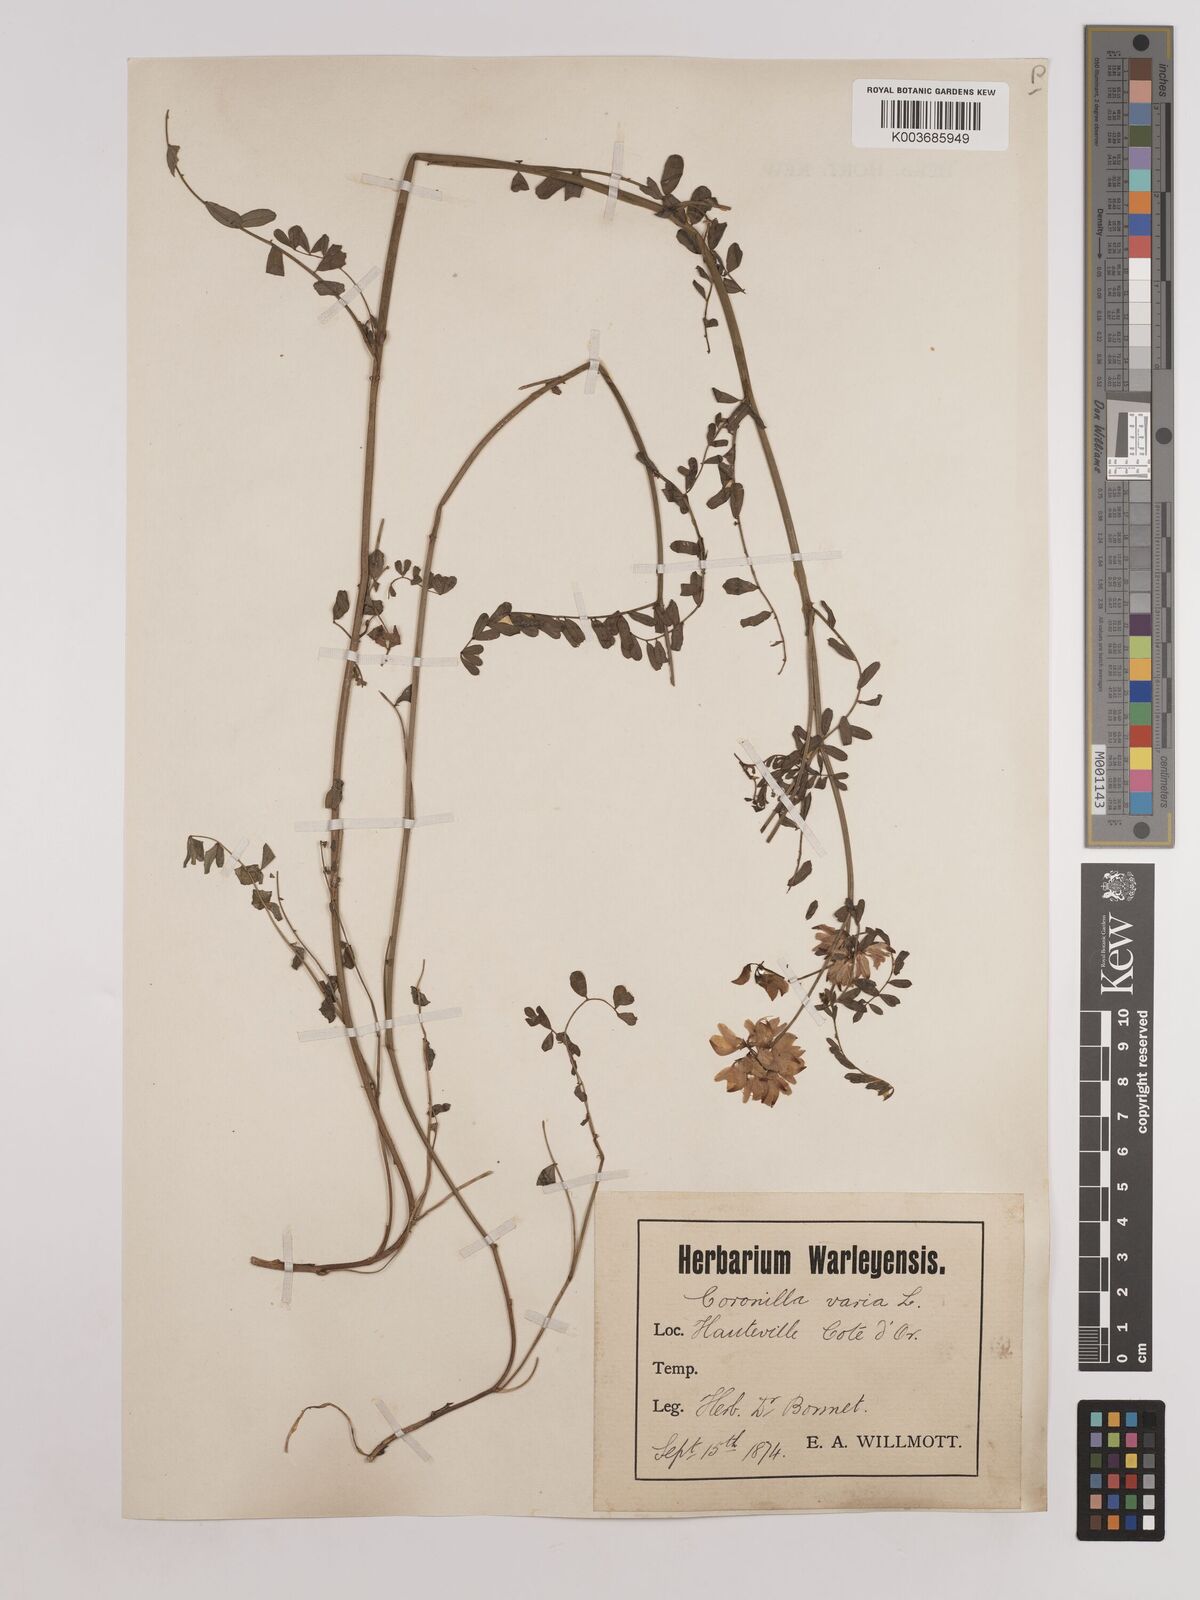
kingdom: Plantae
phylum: Tracheophyta
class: Magnoliopsida
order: Fabales
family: Fabaceae
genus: Coronilla
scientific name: Coronilla varia
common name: Crownvetch
